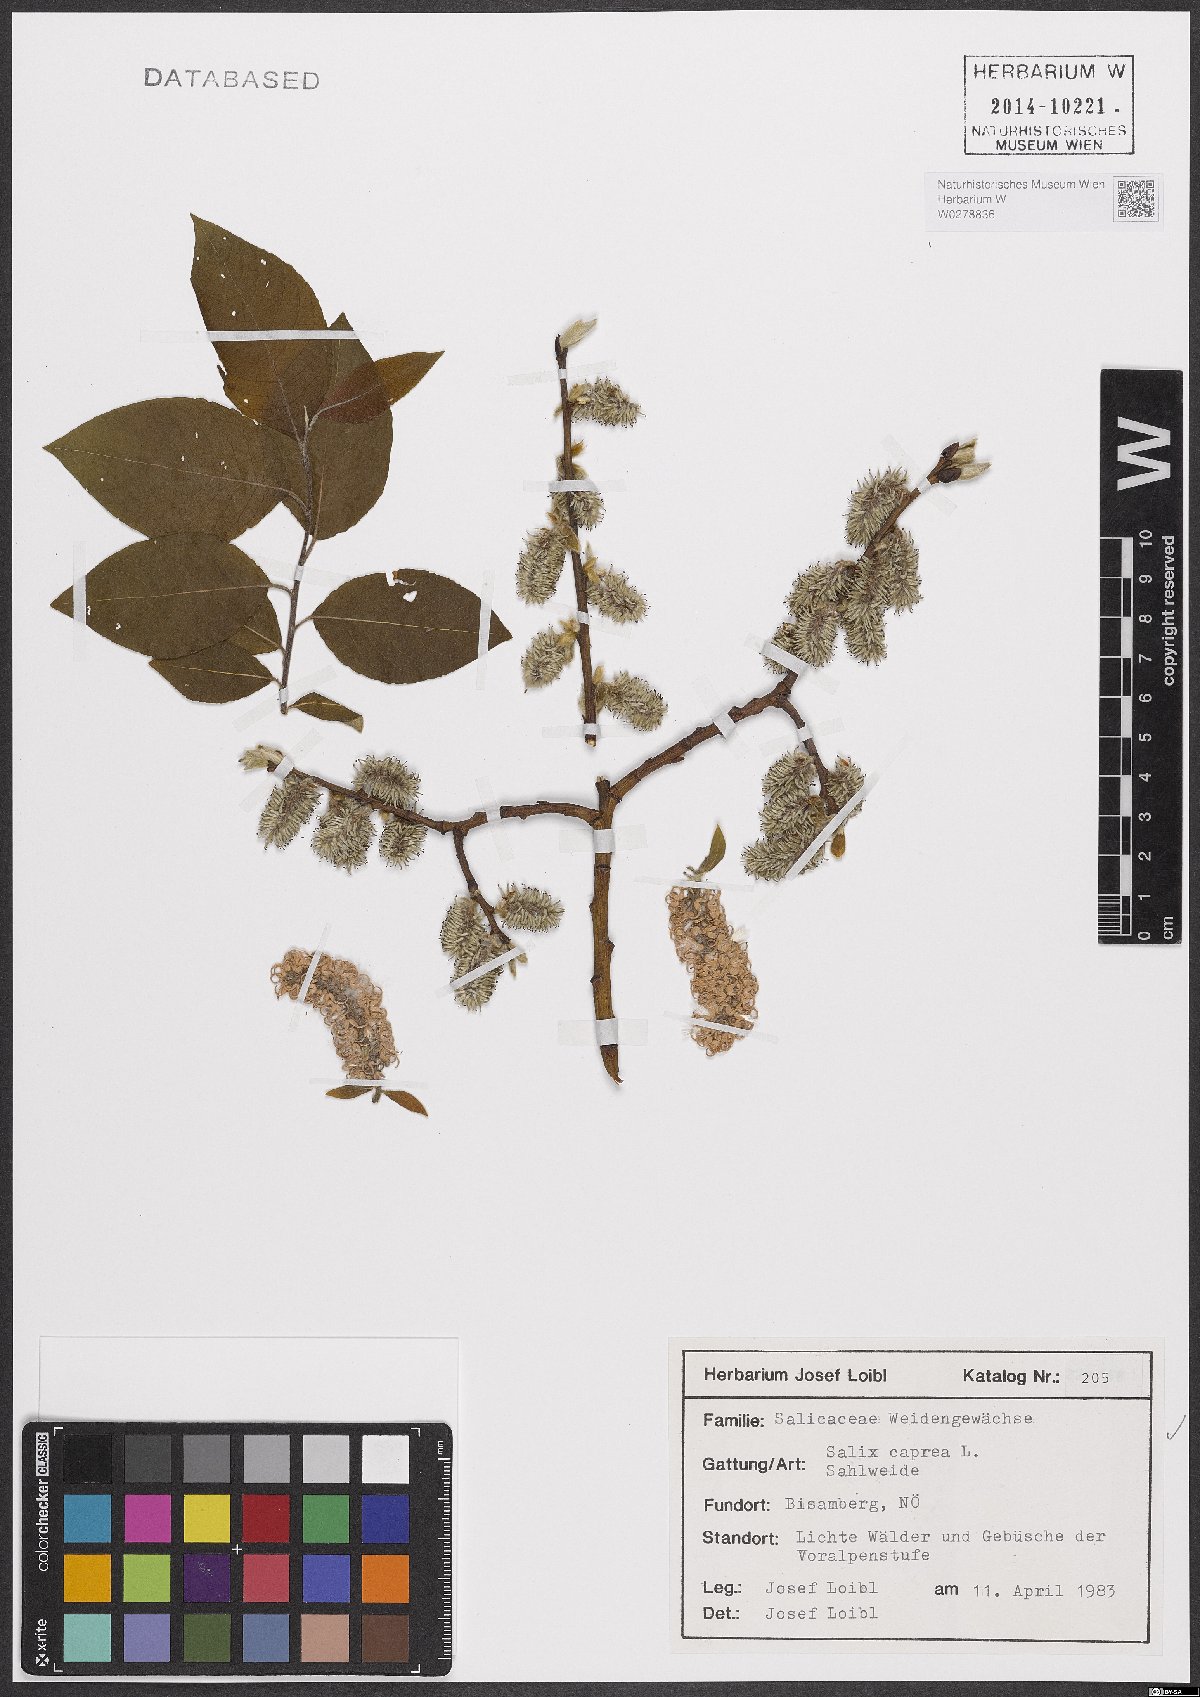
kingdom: Plantae
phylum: Tracheophyta
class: Magnoliopsida
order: Malpighiales
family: Salicaceae
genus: Salix
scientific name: Salix caprea
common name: Goat willow
